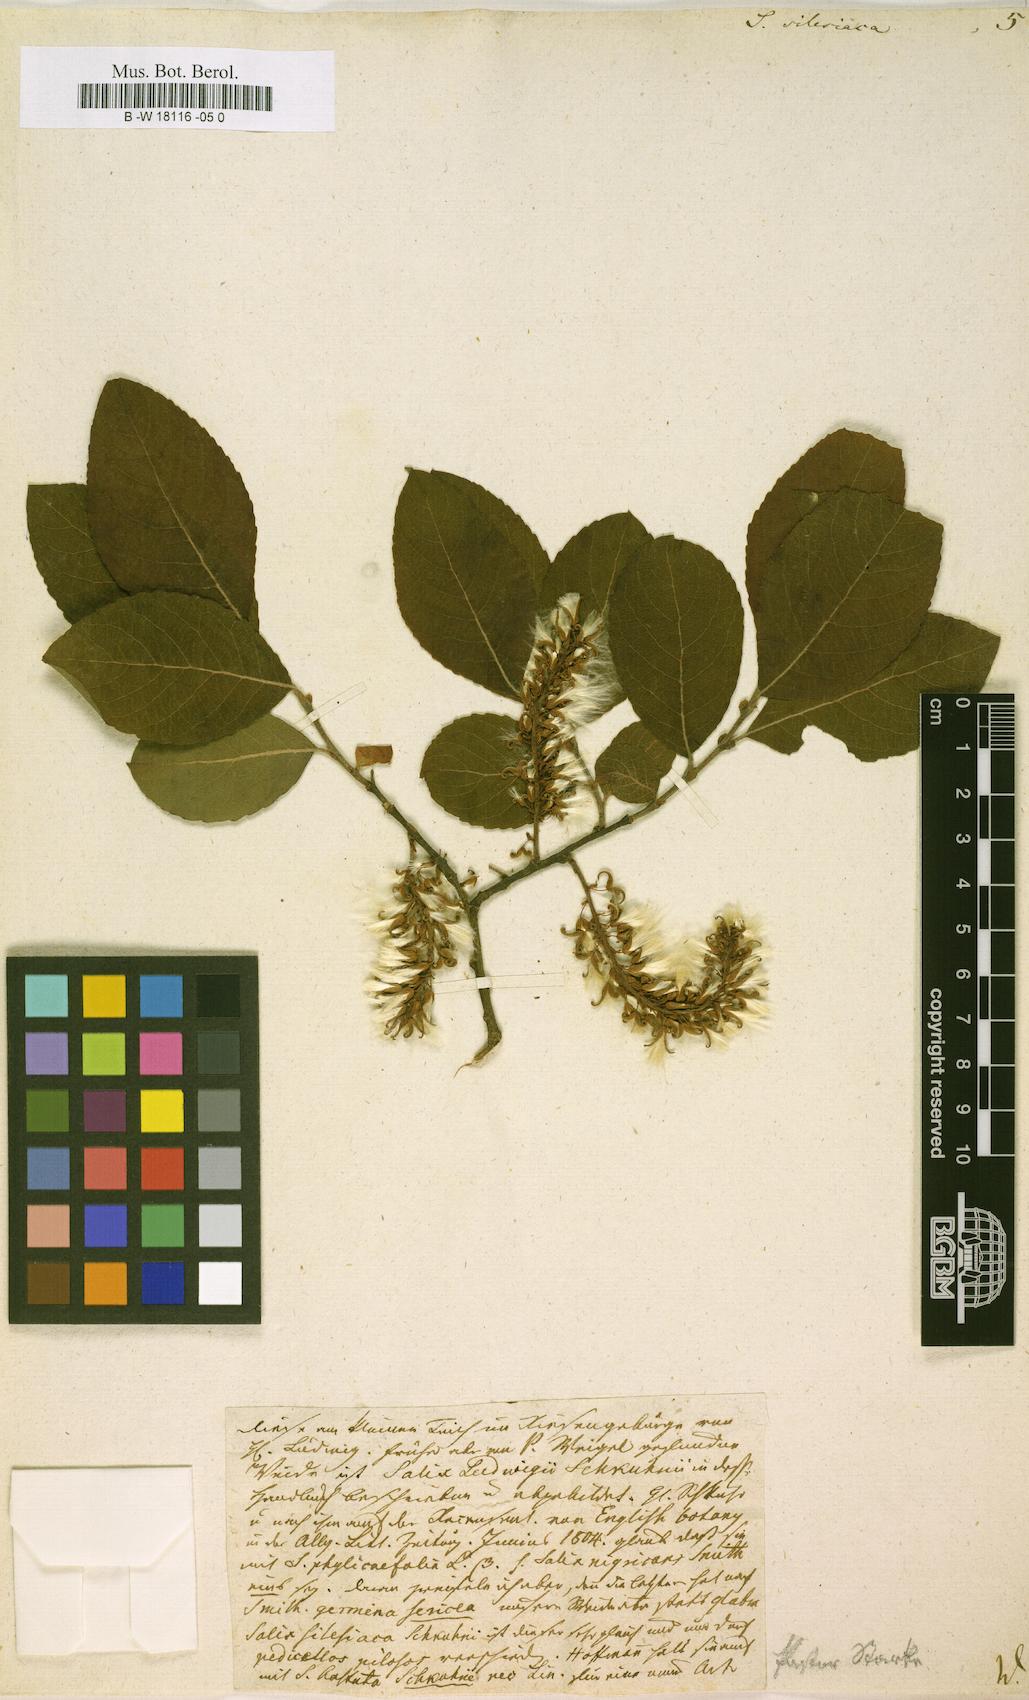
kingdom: Plantae
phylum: Tracheophyta
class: Magnoliopsida
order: Malpighiales
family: Salicaceae
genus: Salix
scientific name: Salix silesiaca
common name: Silesian willow
